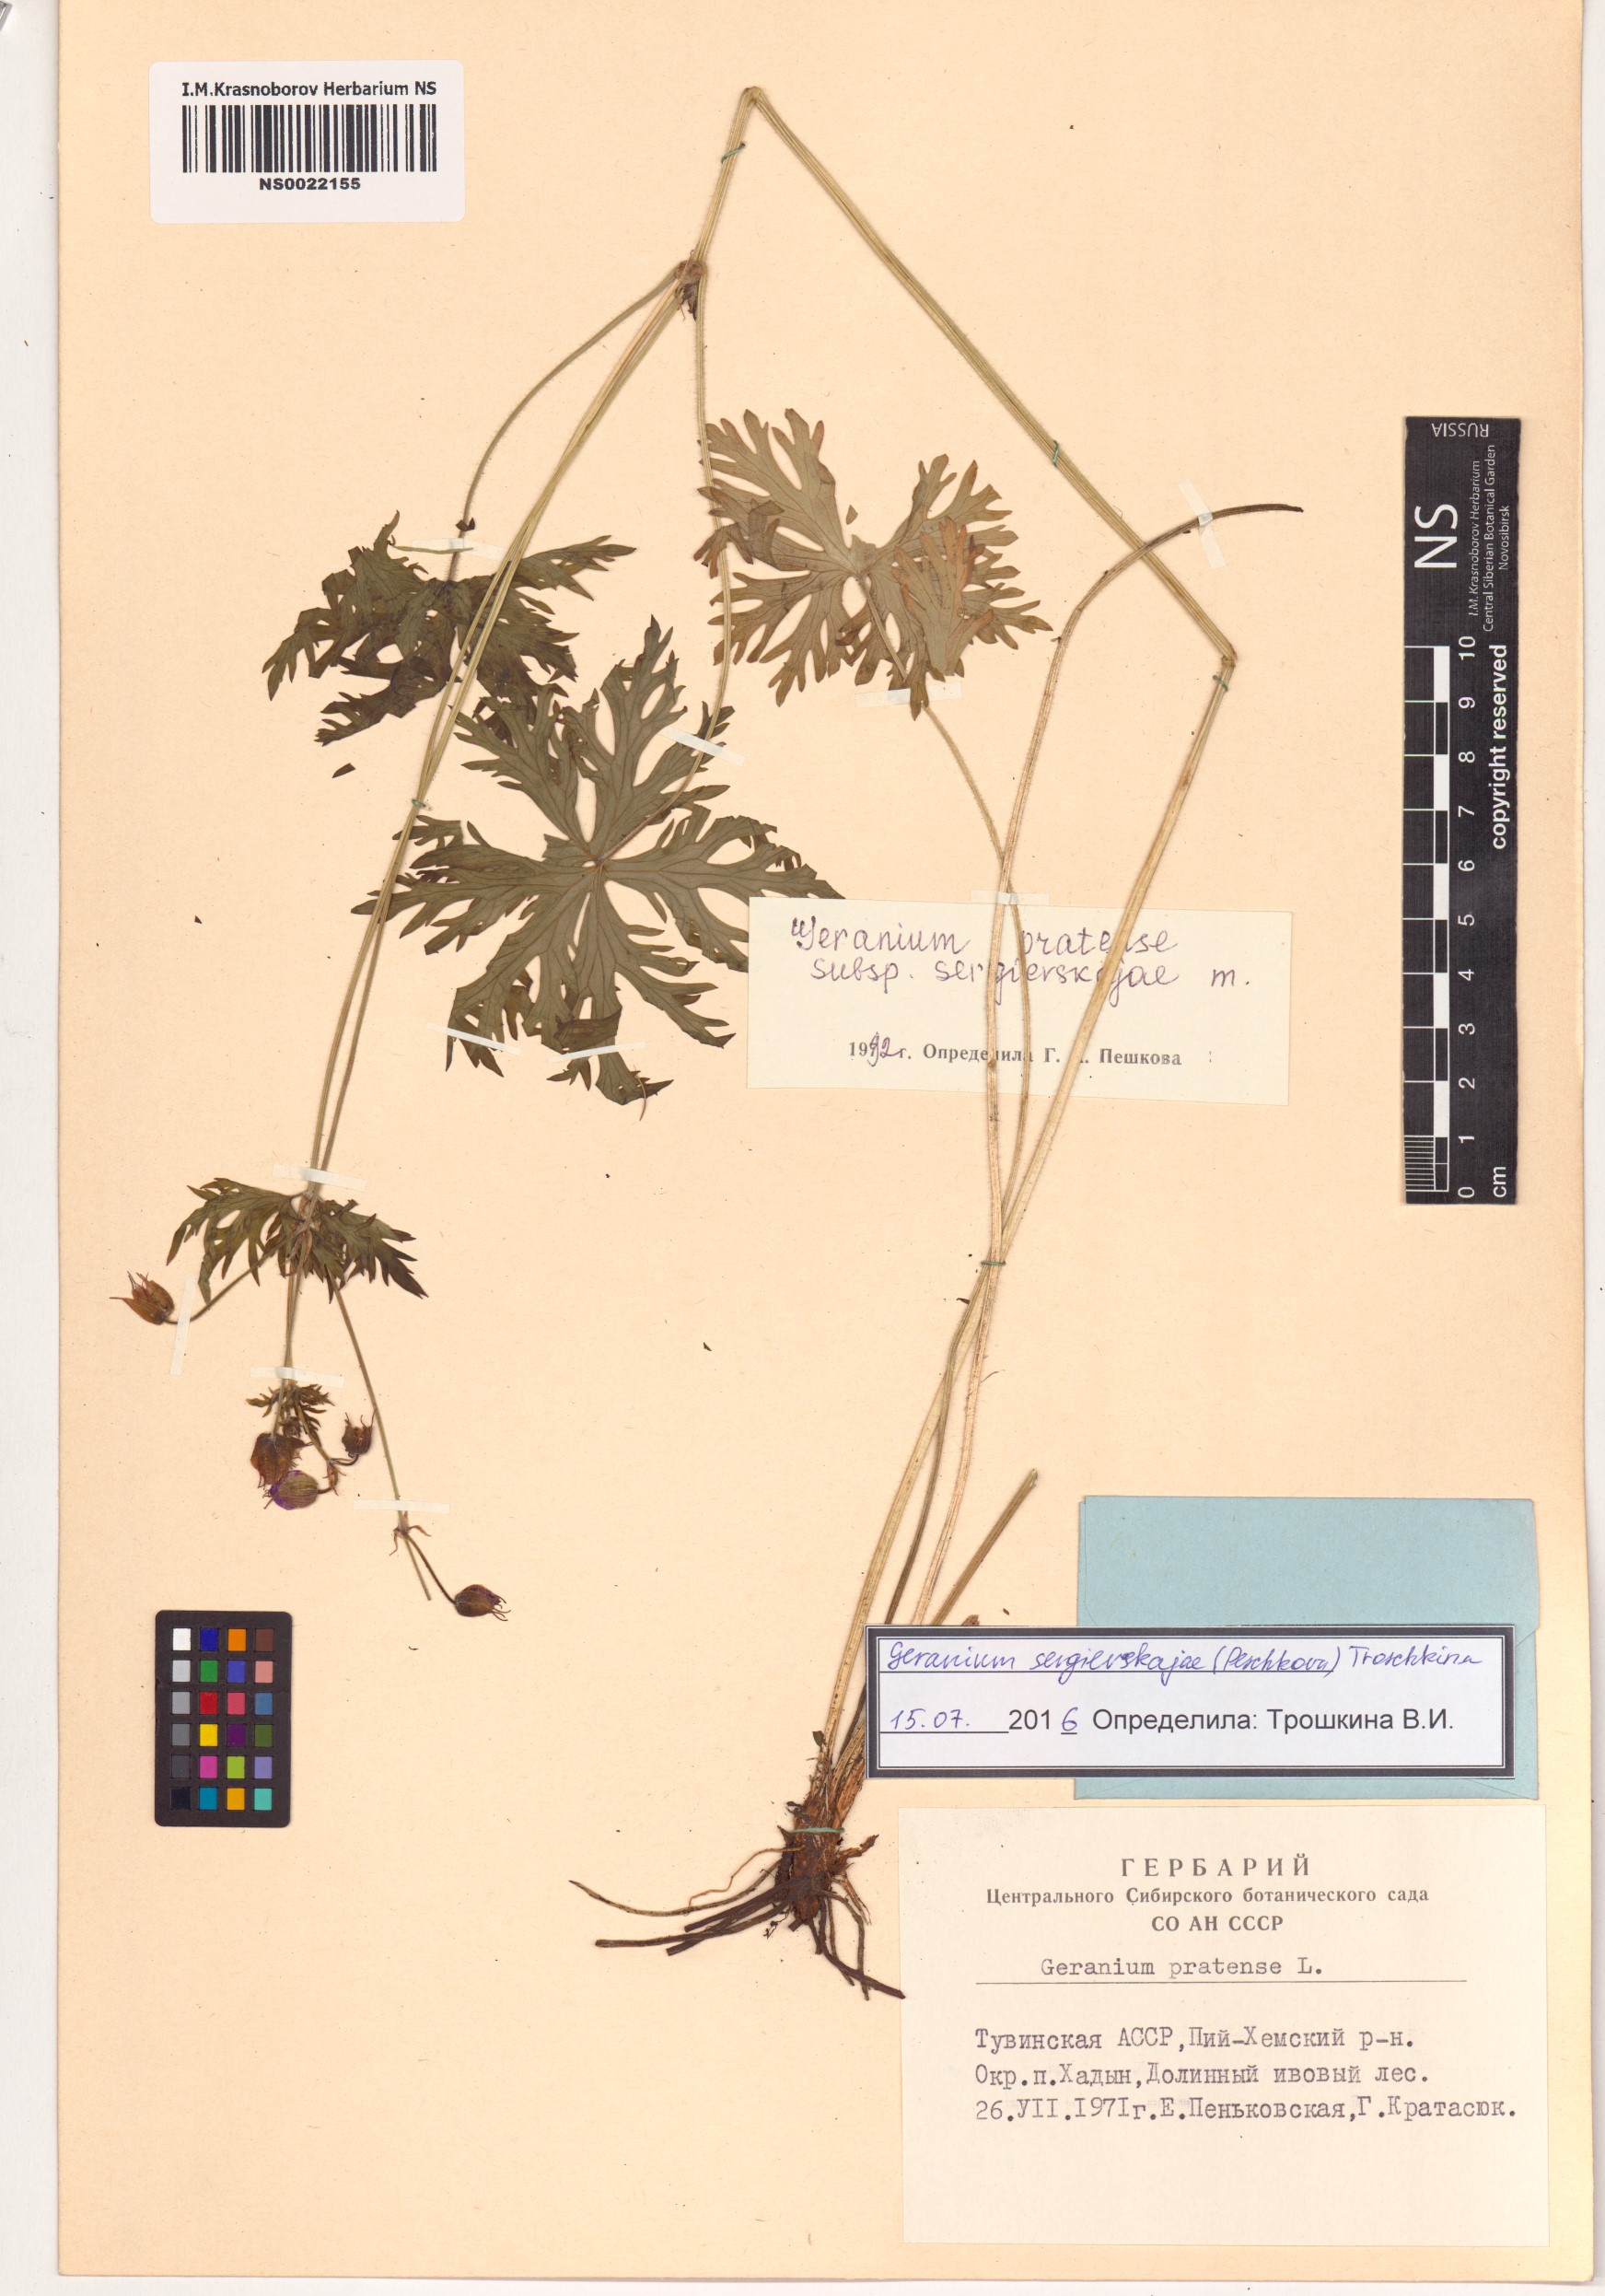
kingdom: Plantae
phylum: Tracheophyta
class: Magnoliopsida
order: Geraniales
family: Geraniaceae
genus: Geranium
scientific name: Geranium pratense
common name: Meadow crane's-bill
